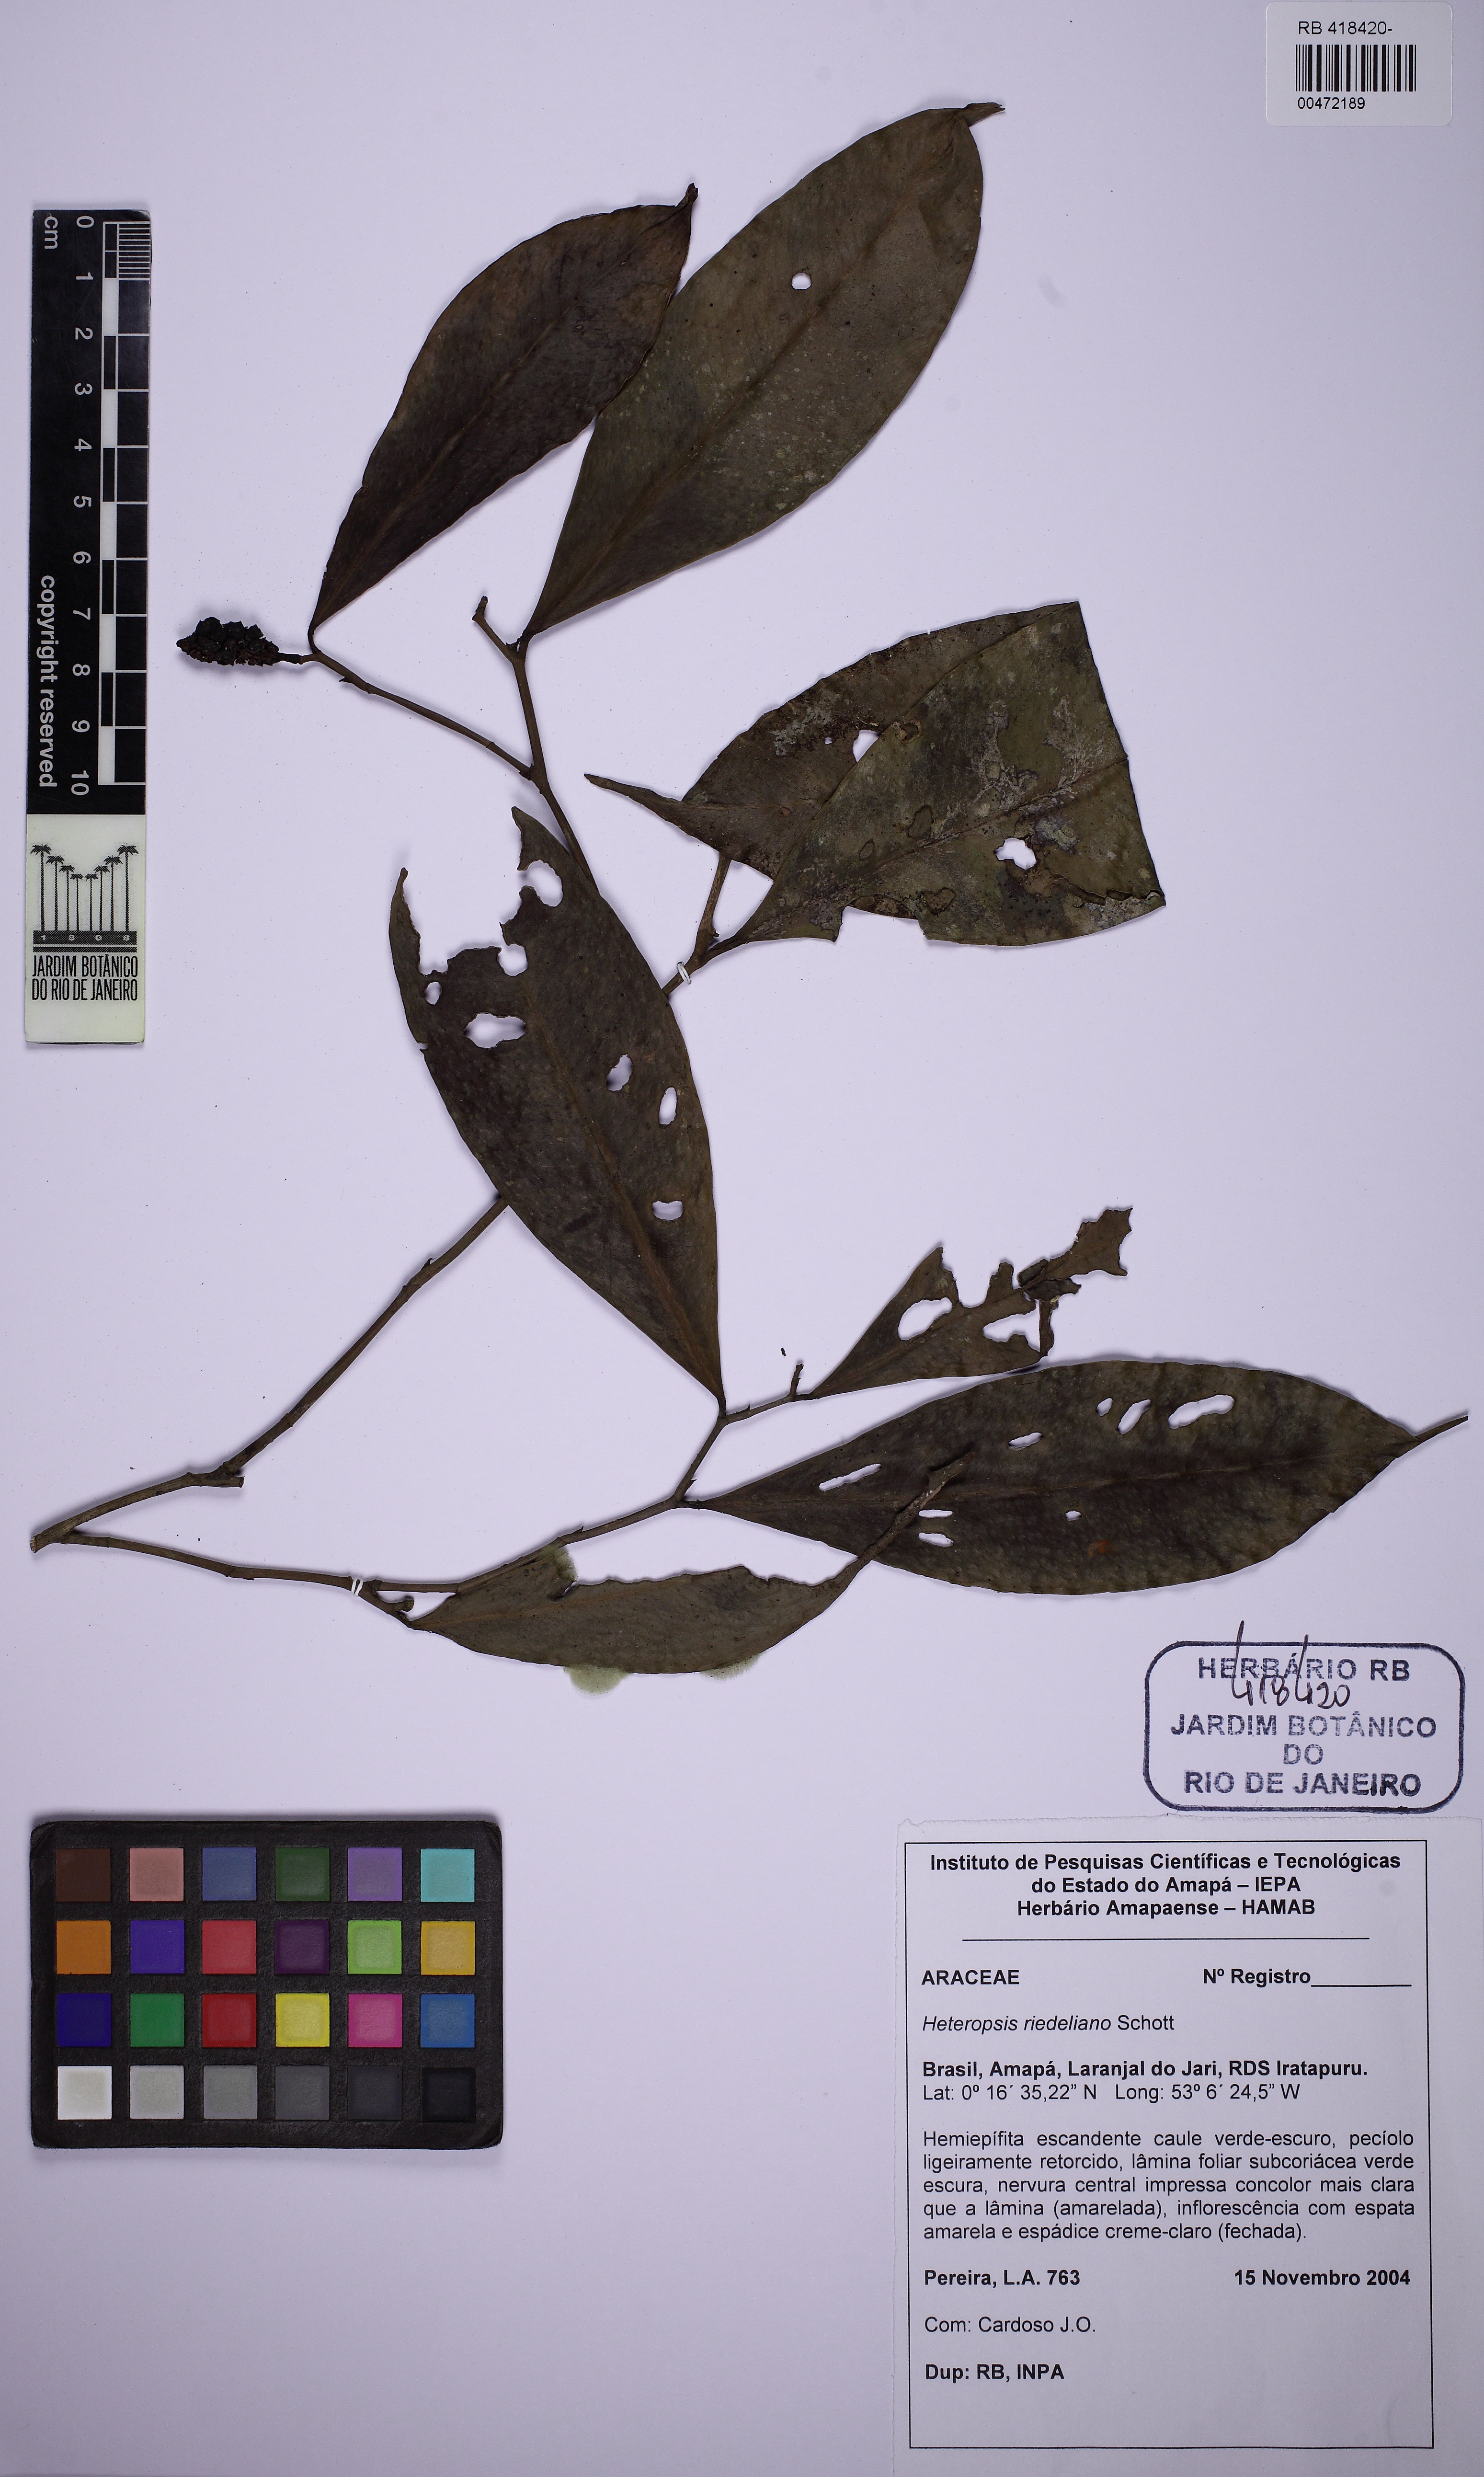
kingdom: Plantae
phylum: Tracheophyta
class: Liliopsida
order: Alismatales
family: Araceae
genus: Heteropsis
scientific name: Heteropsis salicifolia
